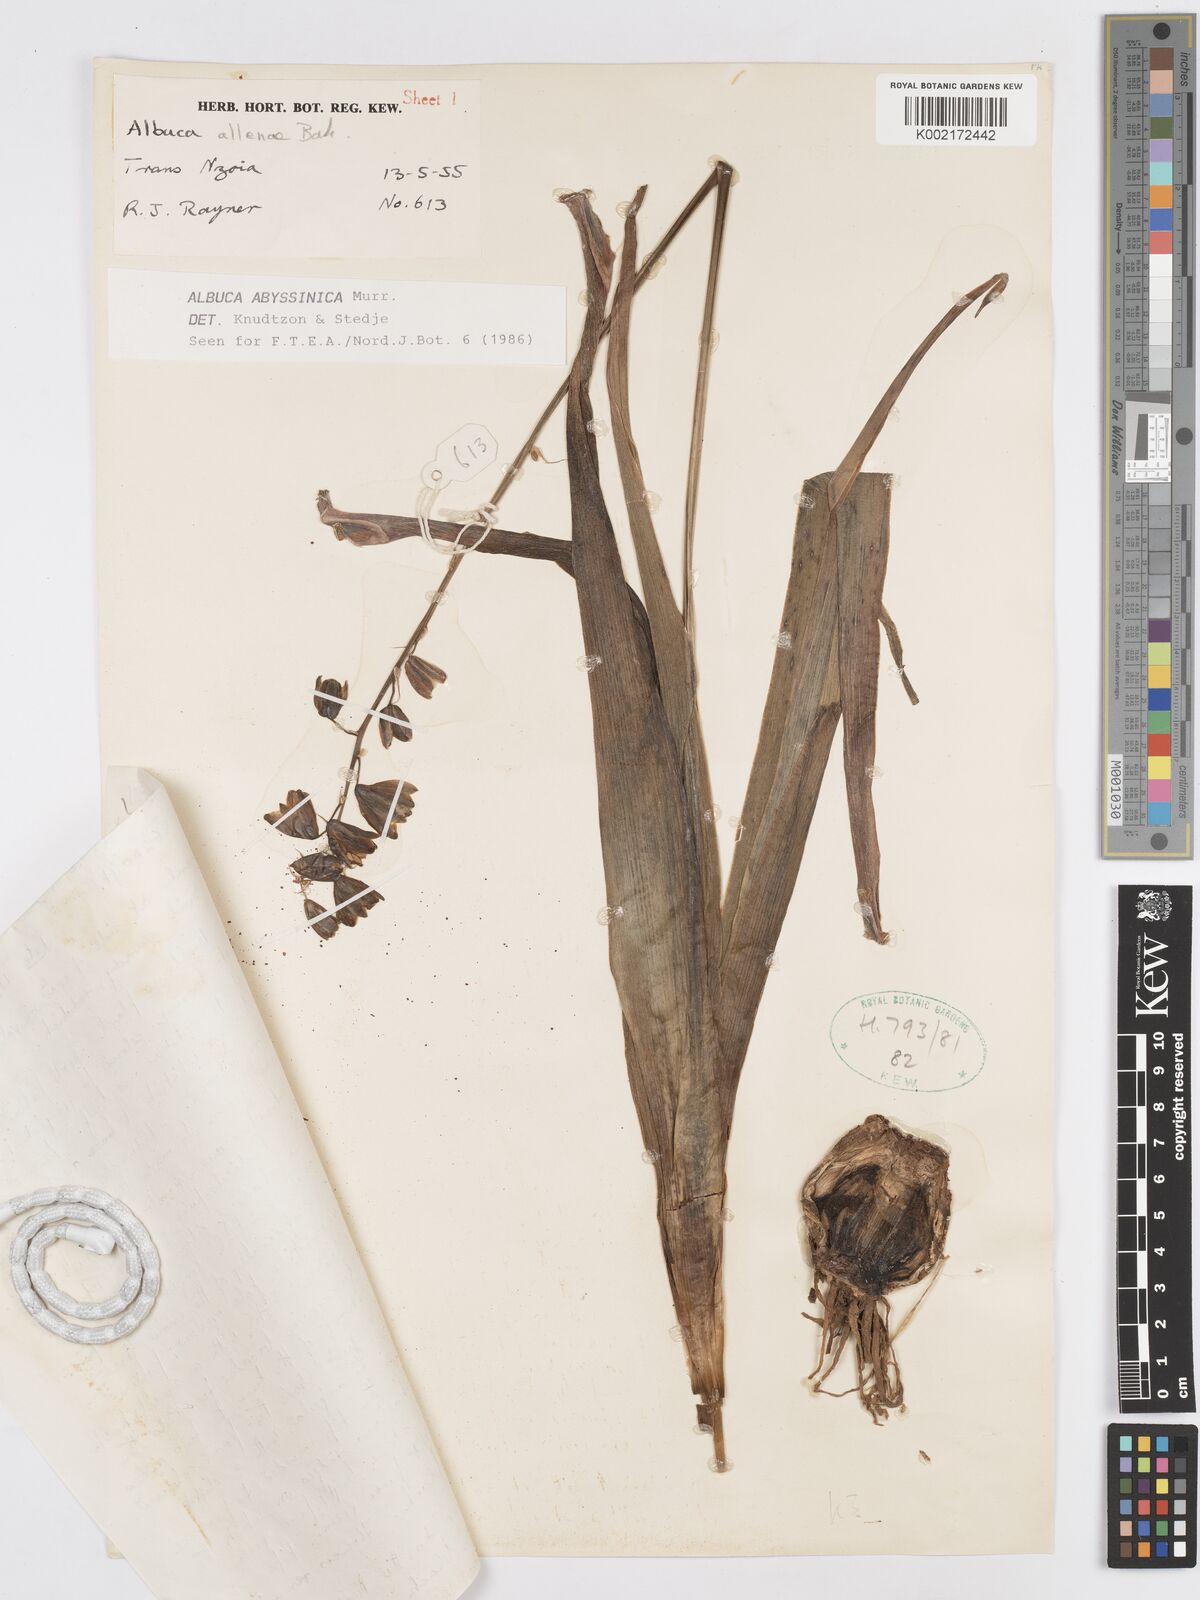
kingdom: Plantae
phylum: Tracheophyta
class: Liliopsida
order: Asparagales
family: Asparagaceae
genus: Albuca
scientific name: Albuca abyssinica
